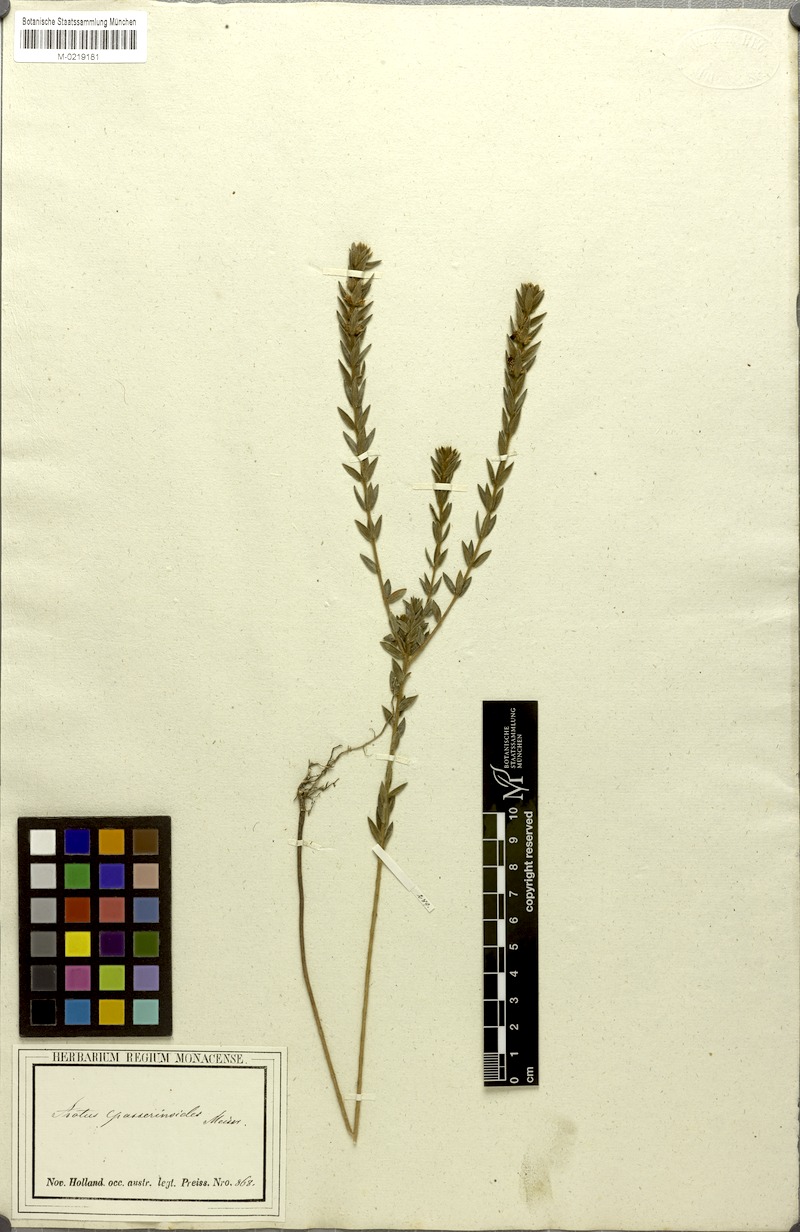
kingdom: Plantae
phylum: Tracheophyta
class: Magnoliopsida
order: Fabales
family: Fabaceae
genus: Aotus
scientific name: Aotus passerinoides
